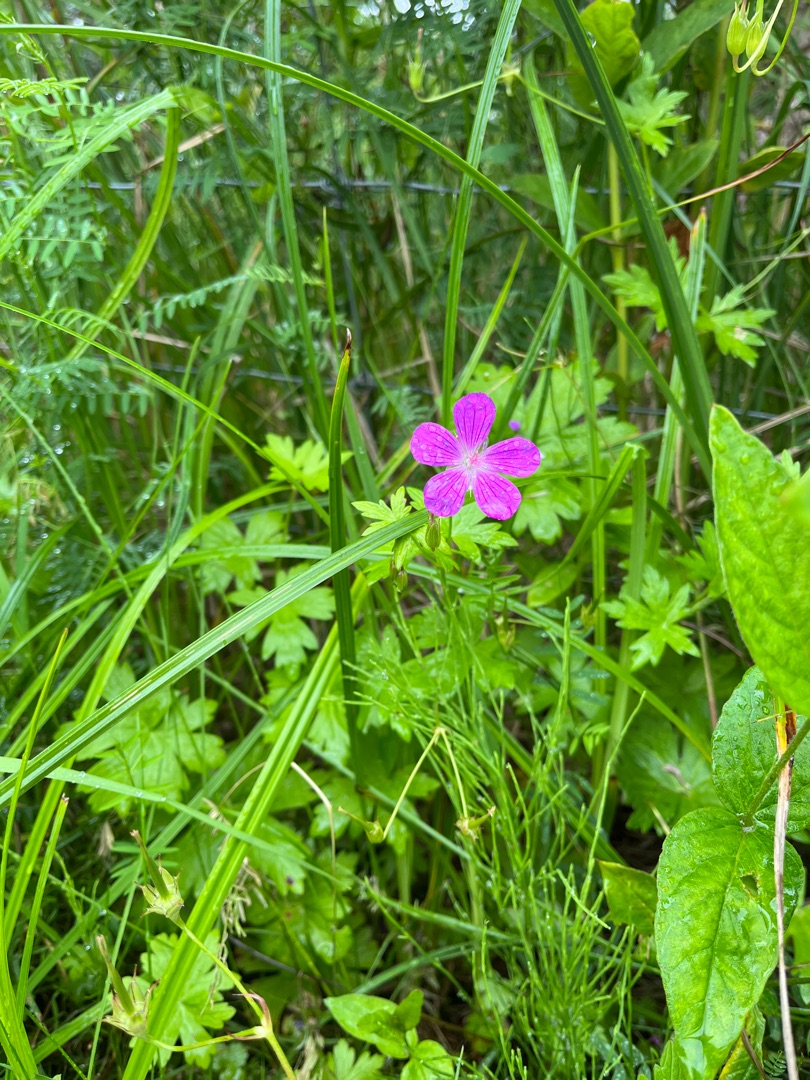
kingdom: Plantae
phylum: Tracheophyta
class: Magnoliopsida
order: Geraniales
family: Geraniaceae
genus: Geranium
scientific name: Geranium palustre
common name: Kær-storkenæb
